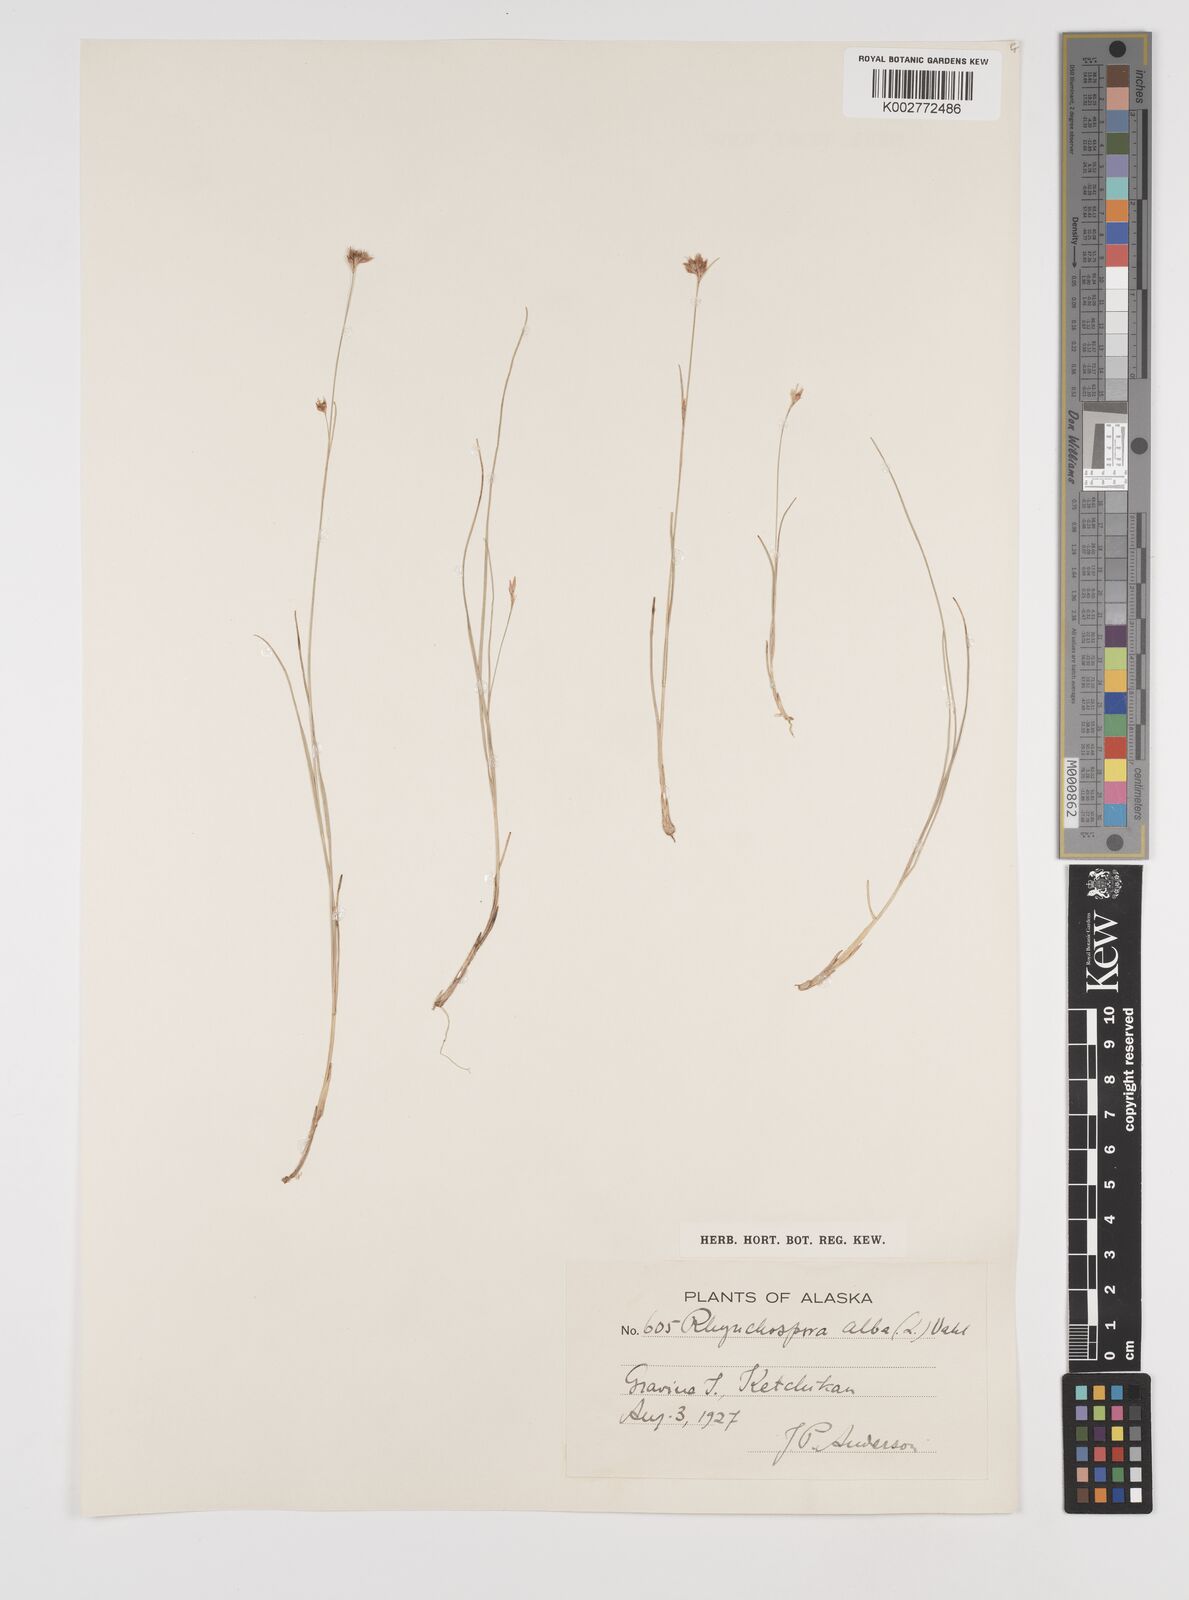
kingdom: Plantae
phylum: Tracheophyta
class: Liliopsida
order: Poales
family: Cyperaceae
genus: Rhynchospora
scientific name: Rhynchospora alba
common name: White beak-sedge
